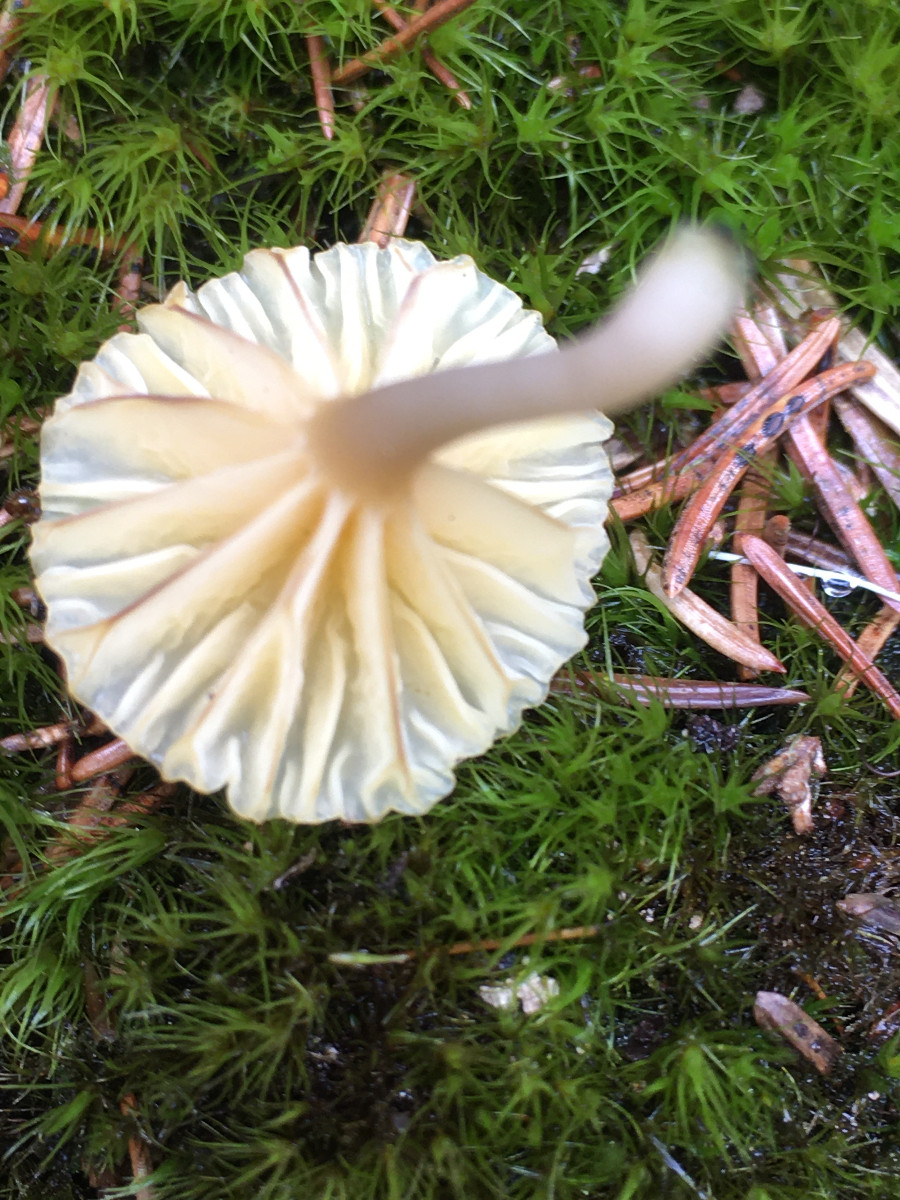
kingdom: Fungi
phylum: Basidiomycota
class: Agaricomycetes
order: Agaricales
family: Hygrophoraceae
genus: Lichenomphalia
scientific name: Lichenomphalia umbellifera
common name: tørve-lavhat
